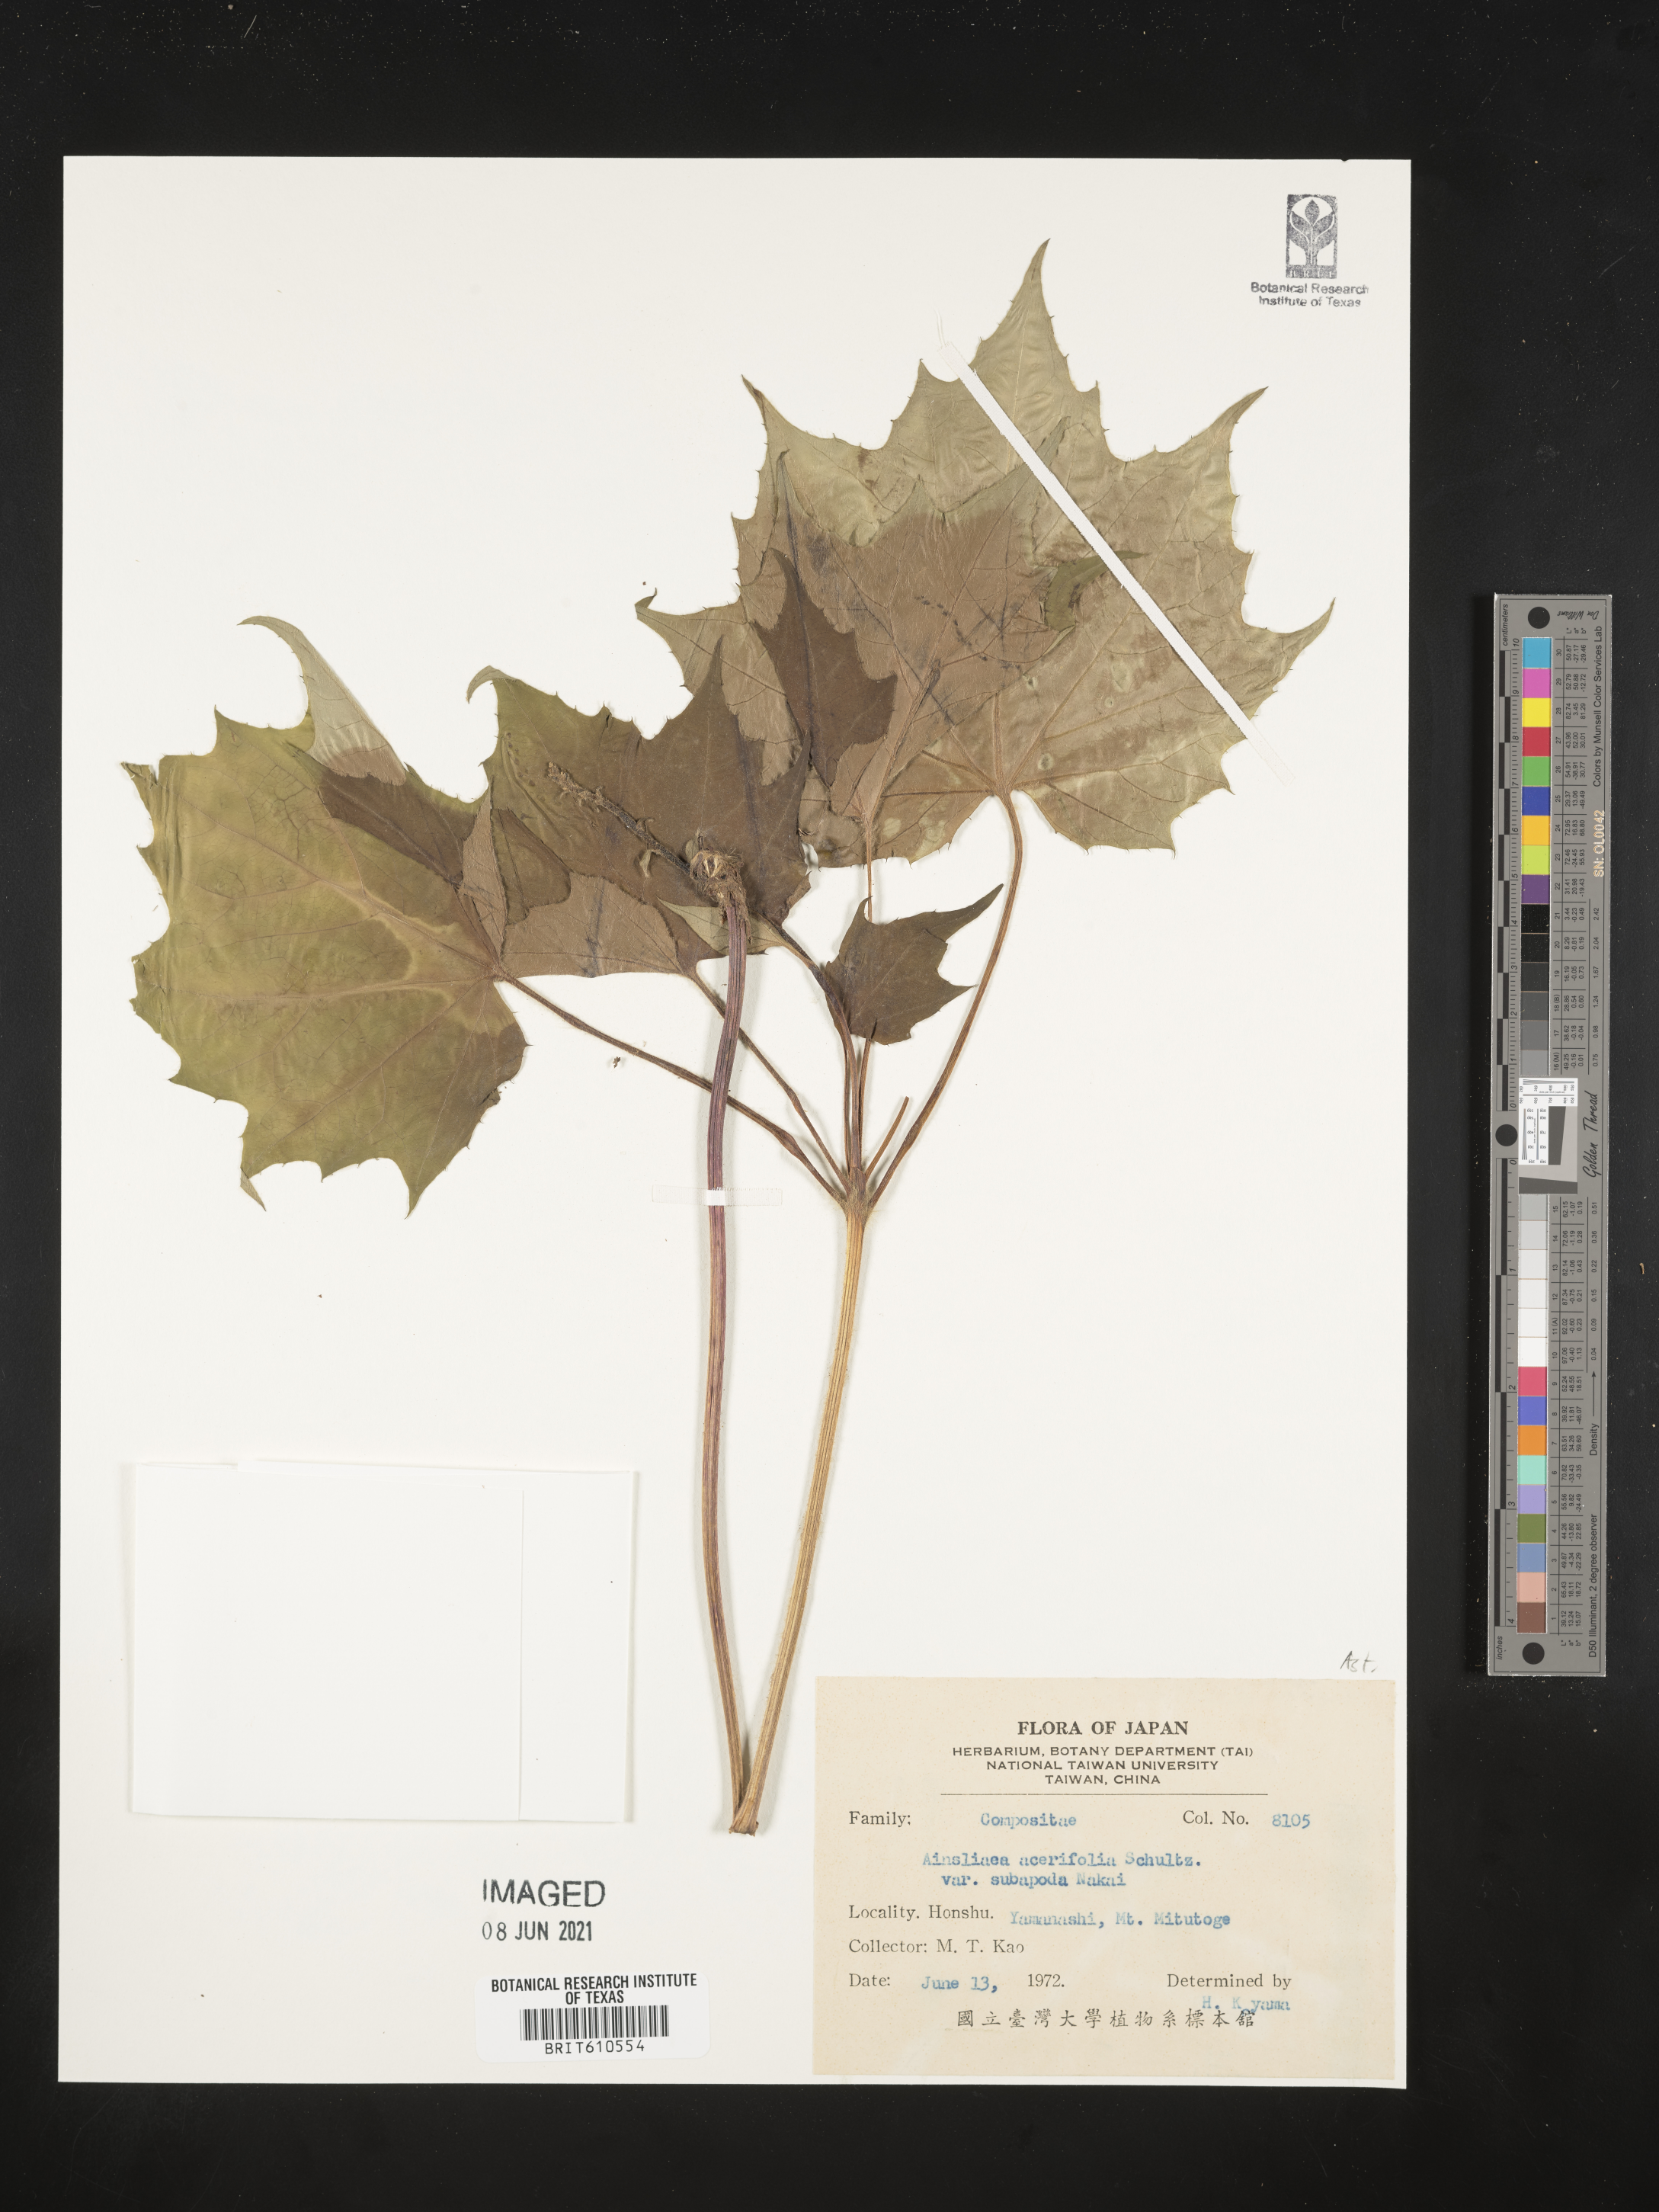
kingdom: Plantae
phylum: Tracheophyta
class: Magnoliopsida
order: Asterales
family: Asteraceae
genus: Ainsliaea
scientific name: Ainsliaea acerifolia
